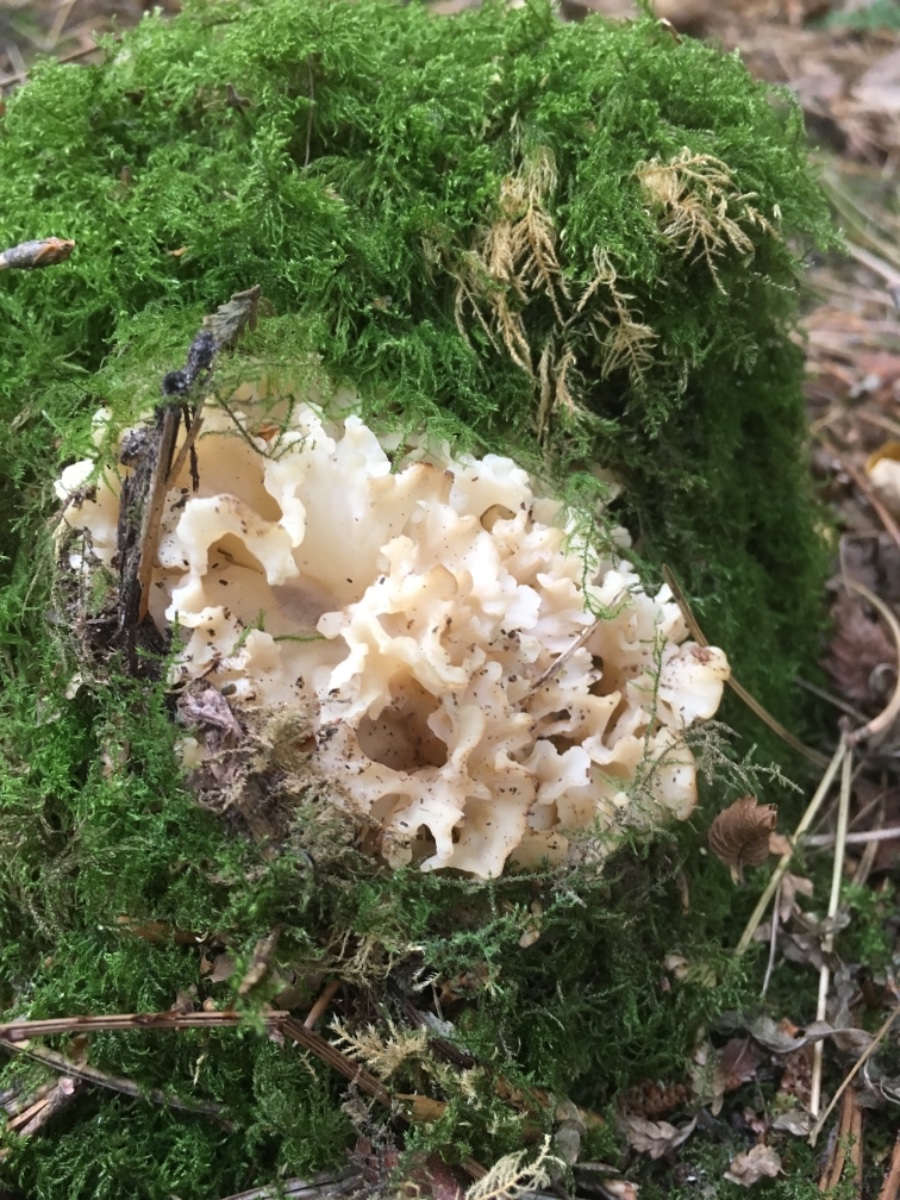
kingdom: Fungi
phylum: Basidiomycota
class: Agaricomycetes
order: Polyporales
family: Sparassidaceae
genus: Sparassis
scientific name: Sparassis crispa
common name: kruset blomkålssvamp
